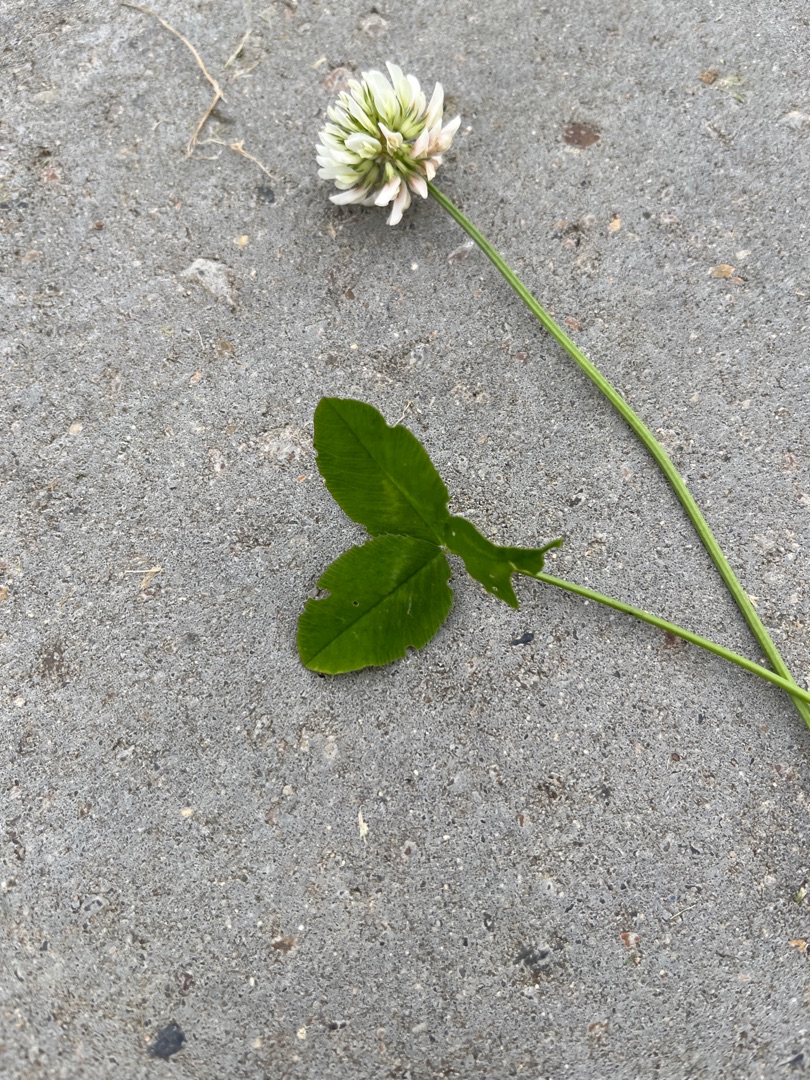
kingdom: Plantae
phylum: Tracheophyta
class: Magnoliopsida
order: Fabales
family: Fabaceae
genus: Trifolium
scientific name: Trifolium repens
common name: Hvid-kløver
